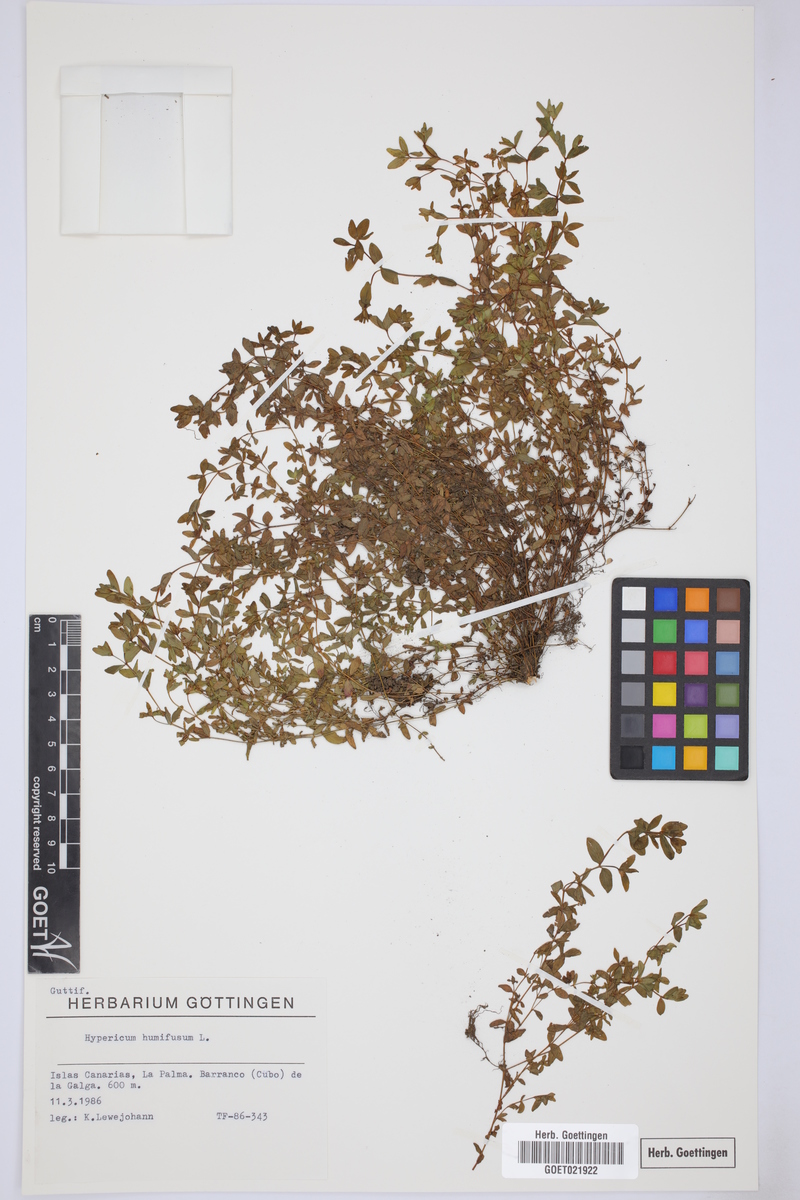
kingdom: Plantae
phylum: Tracheophyta
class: Magnoliopsida
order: Malpighiales
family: Hypericaceae
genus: Hypericum
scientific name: Hypericum humifusum
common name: Trailing st. john's-wort
